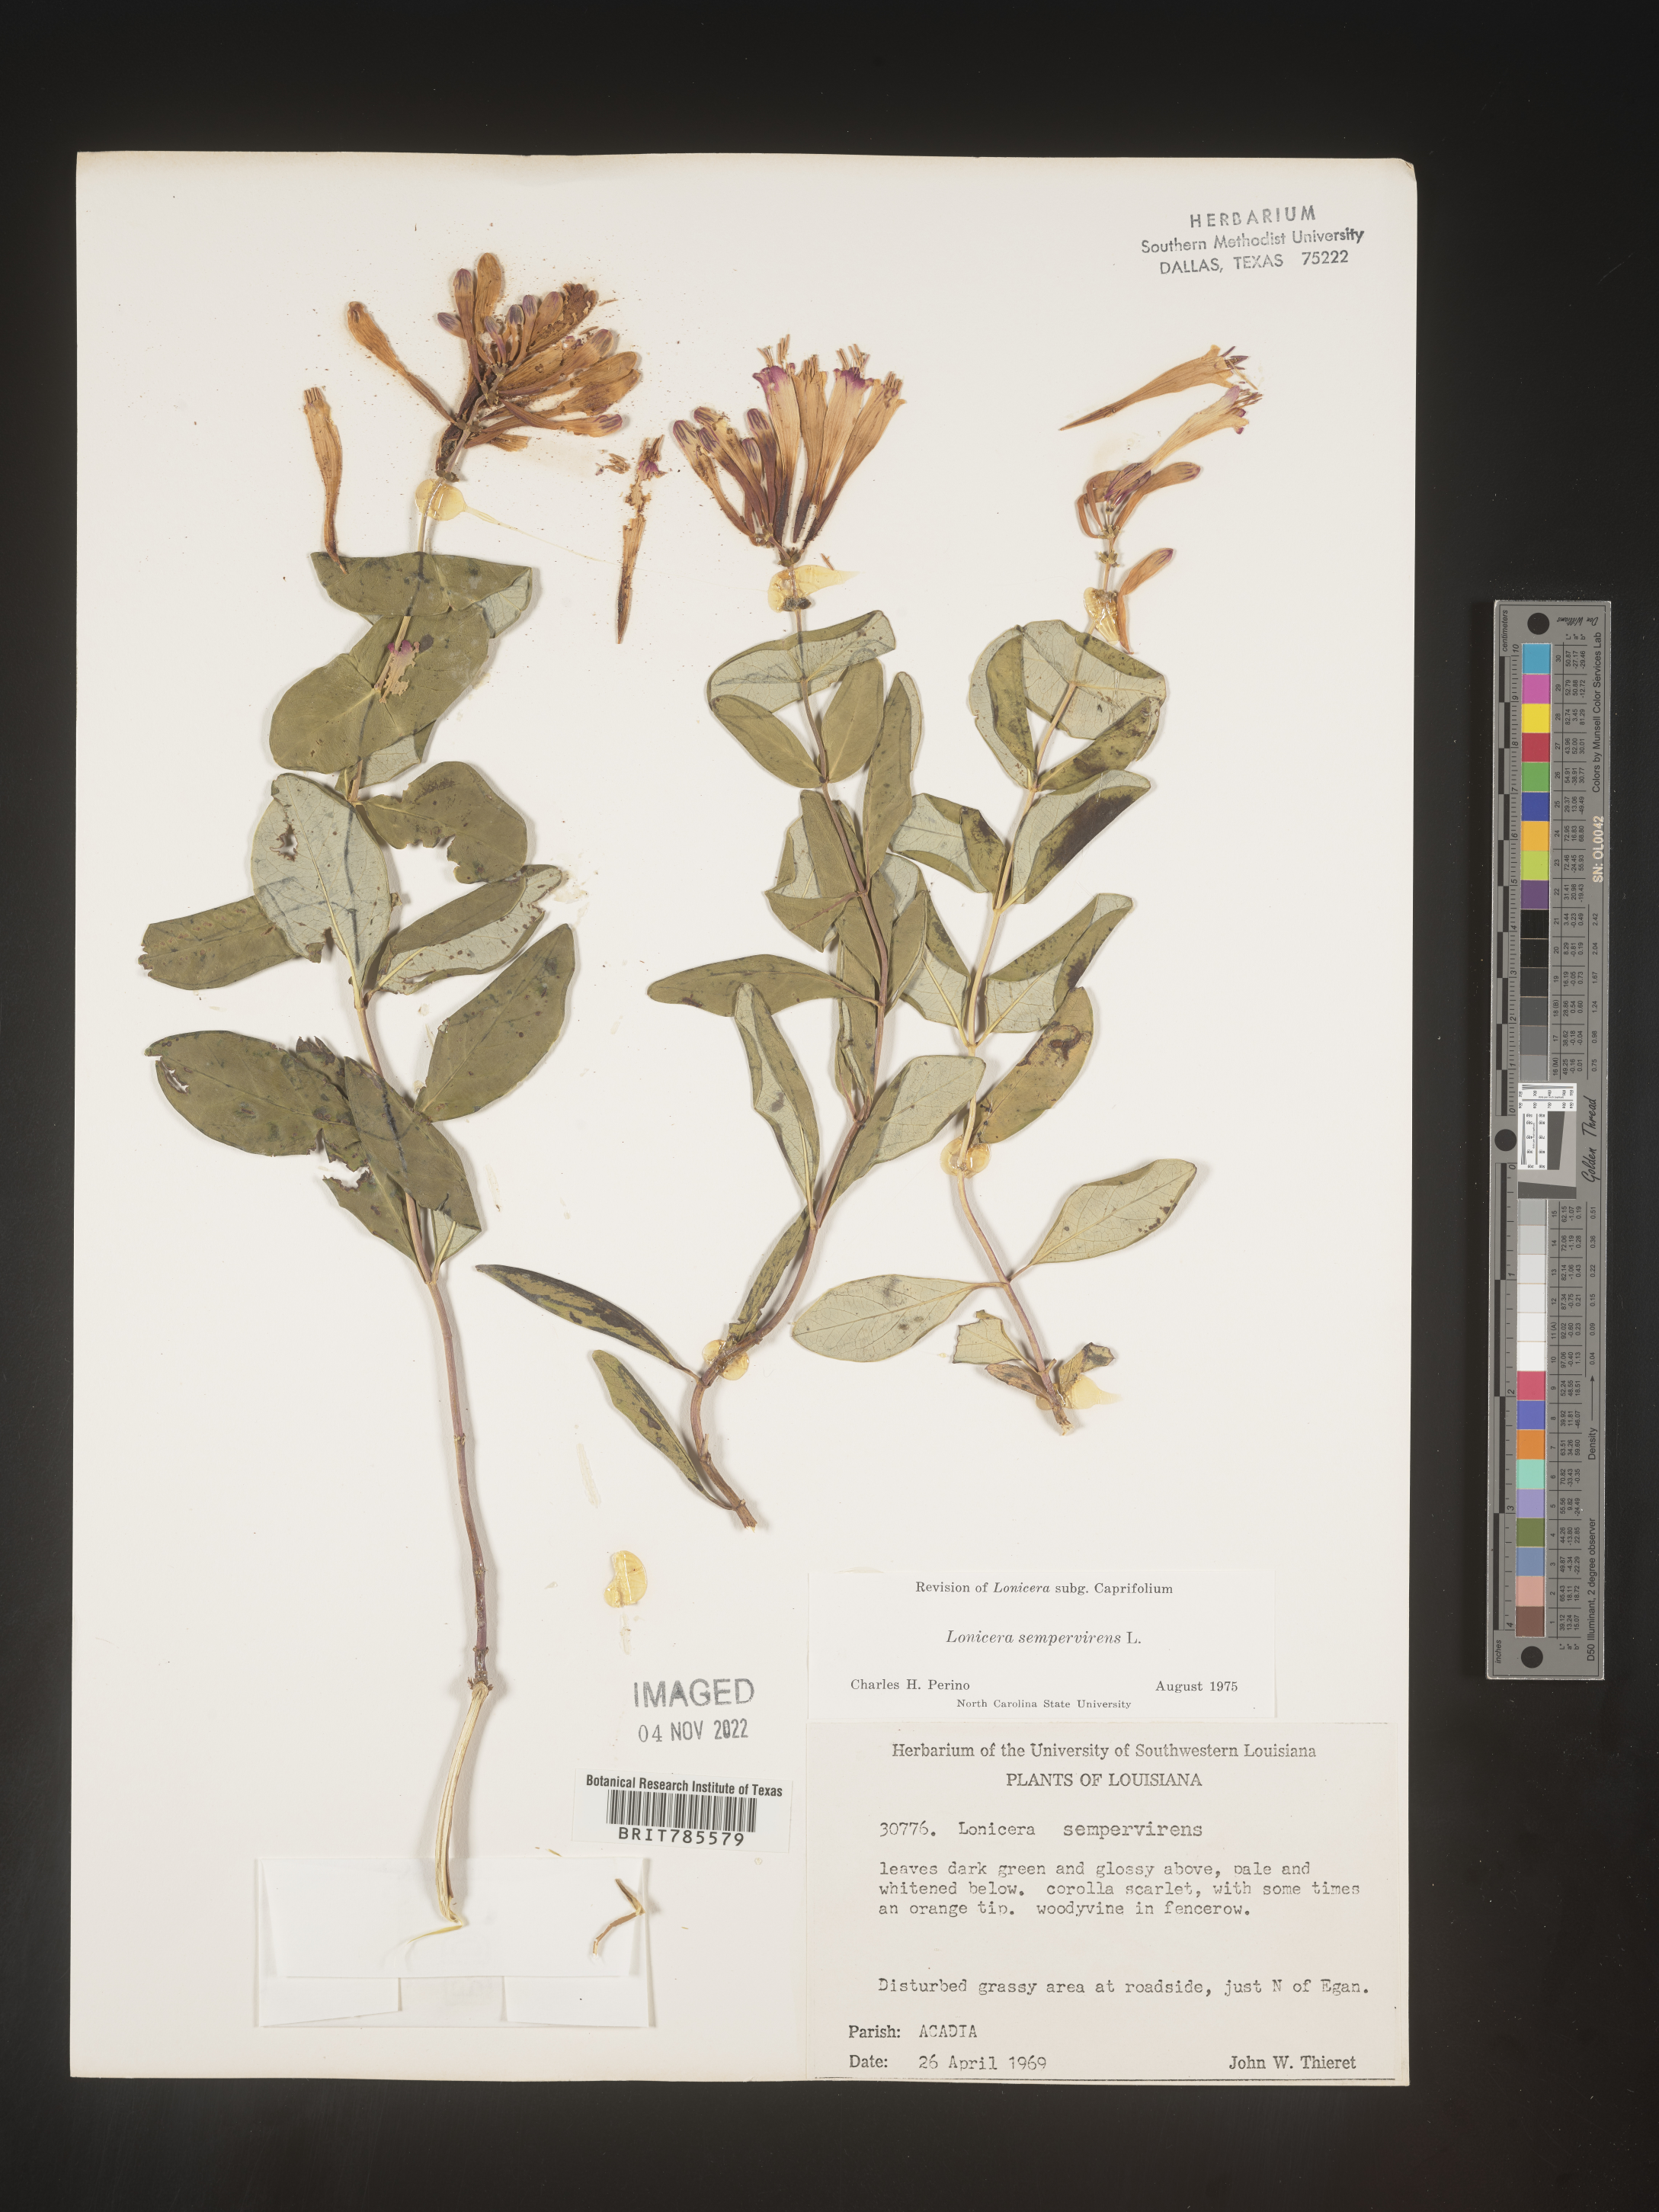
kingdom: Plantae
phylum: Tracheophyta
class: Magnoliopsida
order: Dipsacales
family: Caprifoliaceae
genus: Lonicera
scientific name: Lonicera sempervirens
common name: Coral honeysuckle
